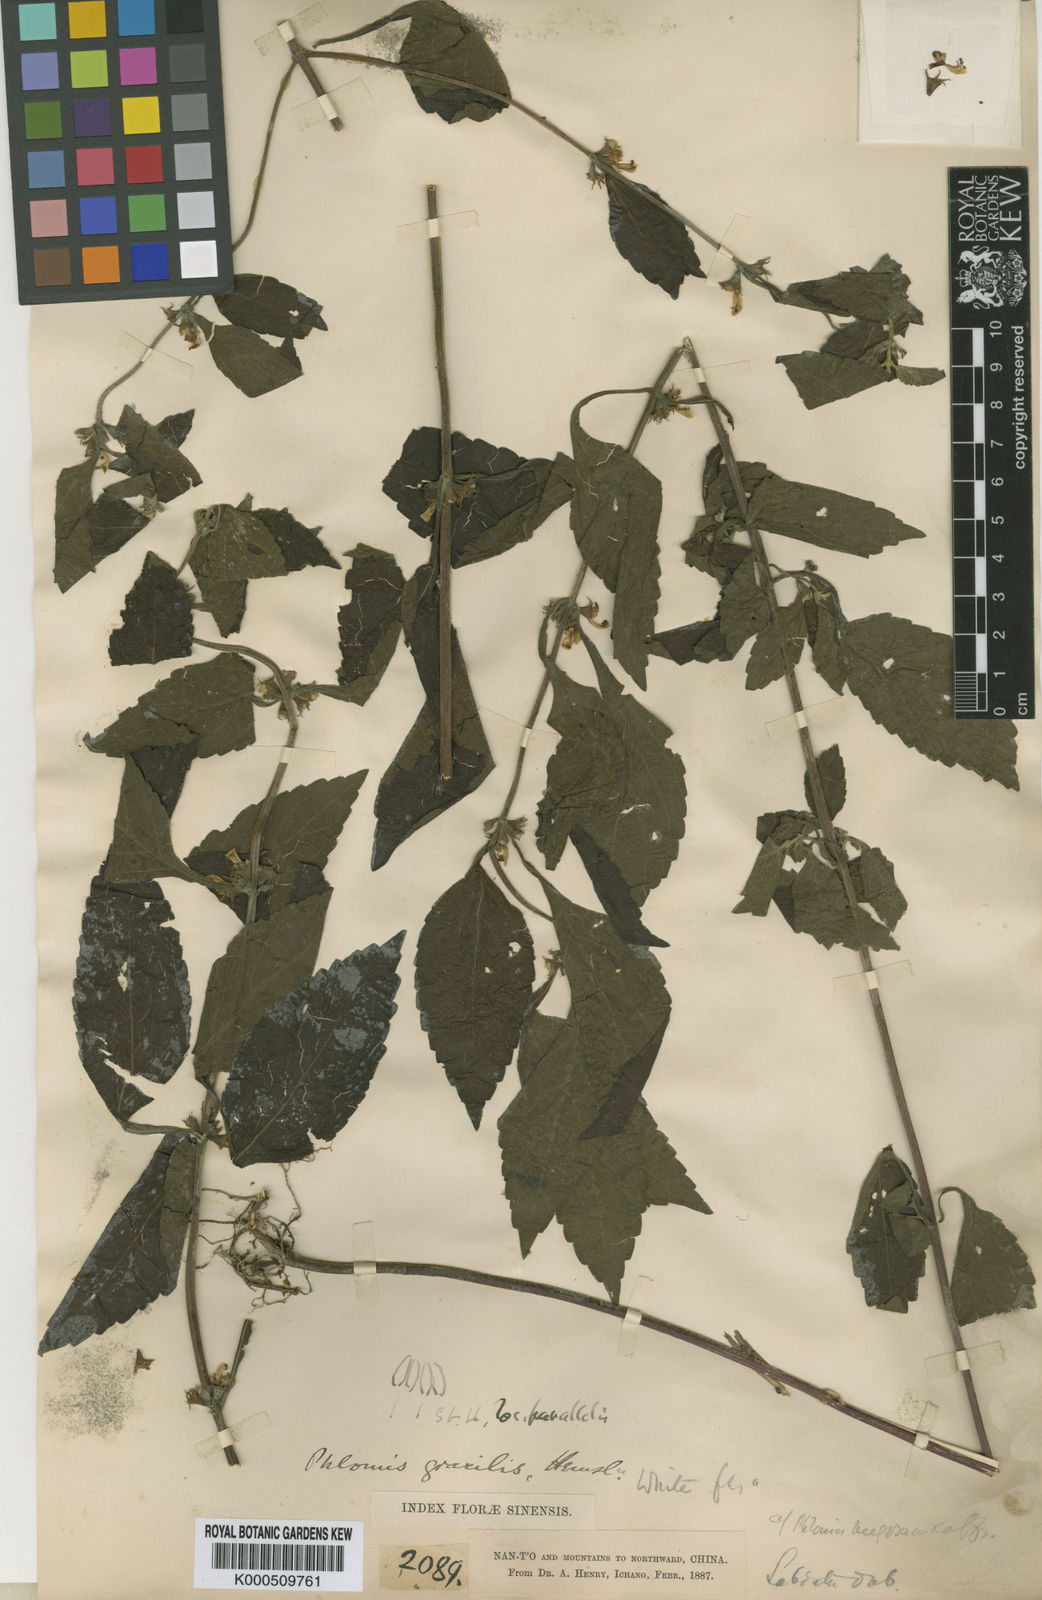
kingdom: Plantae
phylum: Tracheophyta
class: Magnoliopsida
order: Lamiales
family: Lamiaceae
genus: Paraphlomis
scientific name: Paraphlomis
